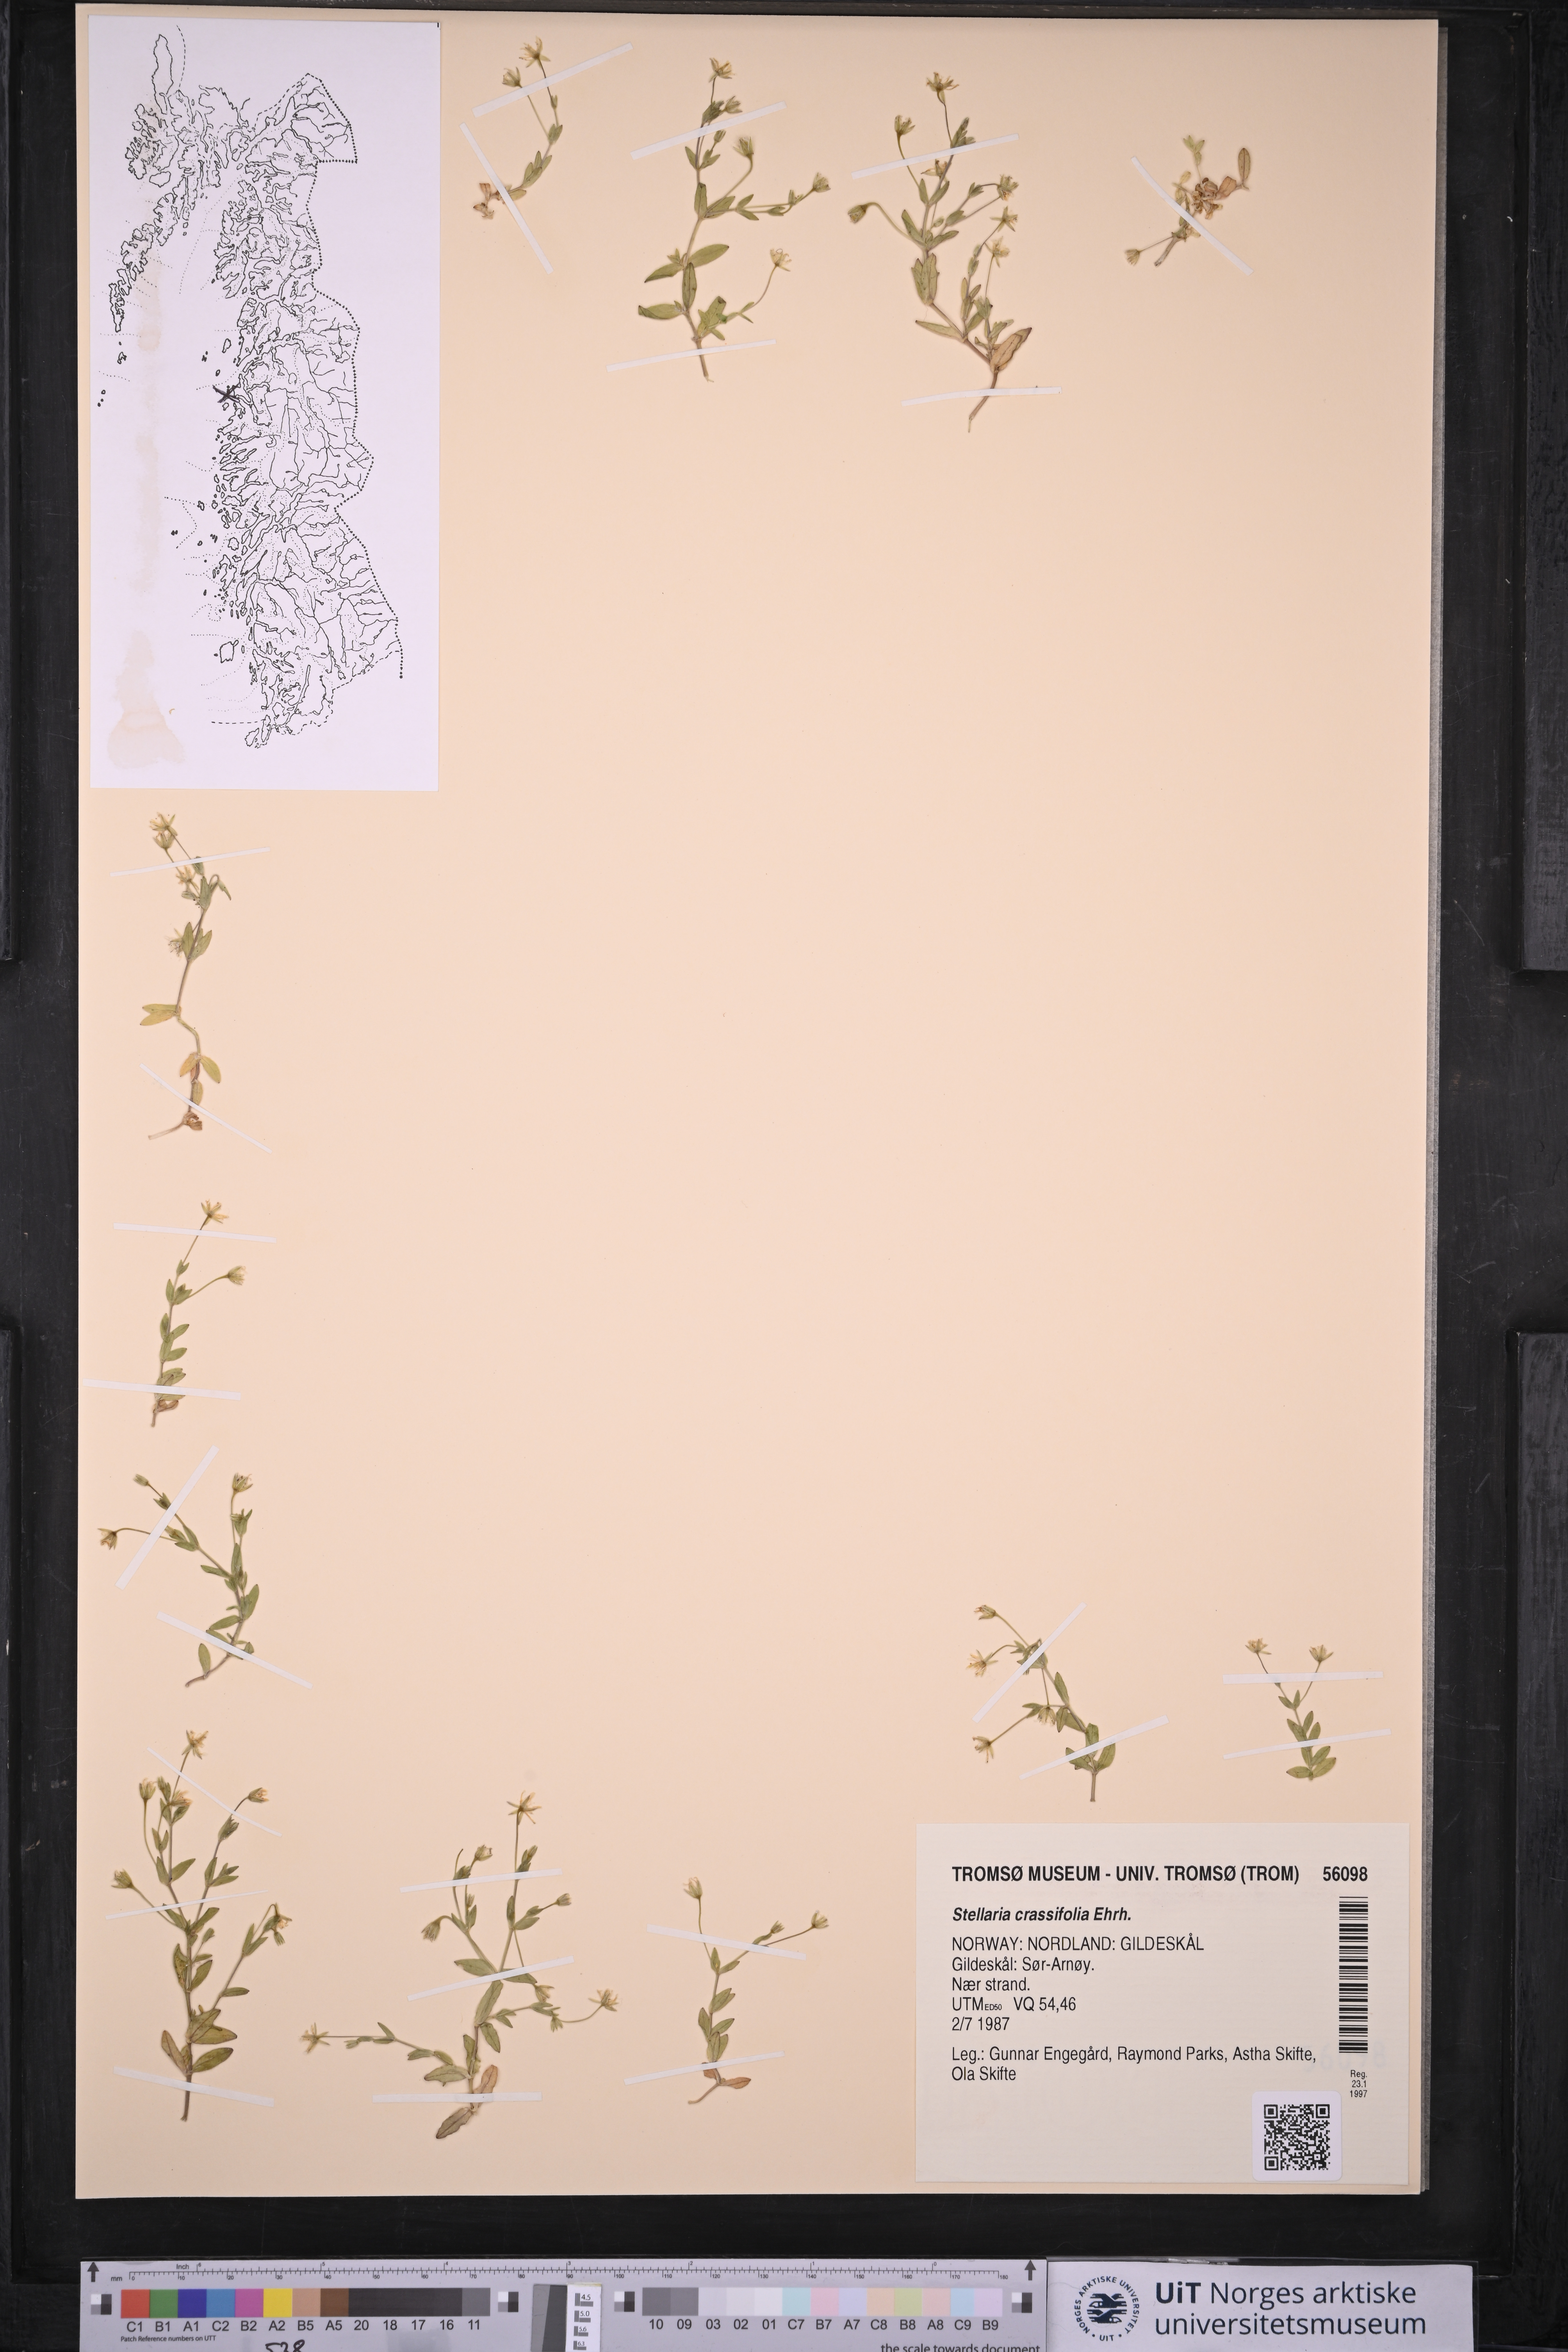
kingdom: Plantae
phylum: Tracheophyta
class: Magnoliopsida
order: Caryophyllales
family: Caryophyllaceae
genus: Stellaria
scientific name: Stellaria crassifolia
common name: Fleshy starwort
